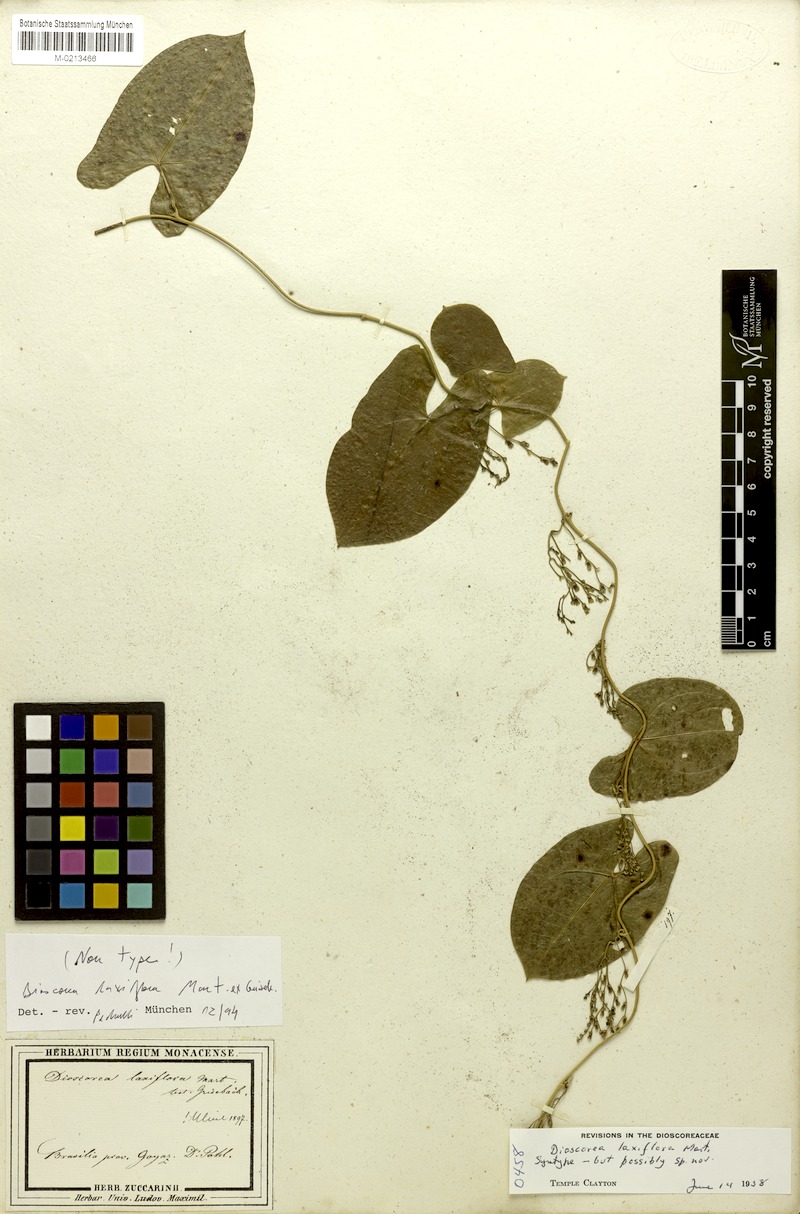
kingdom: Plantae
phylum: Tracheophyta
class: Liliopsida
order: Dioscoreales
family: Dioscoreaceae
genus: Dioscorea
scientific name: Dioscorea laxiflora
